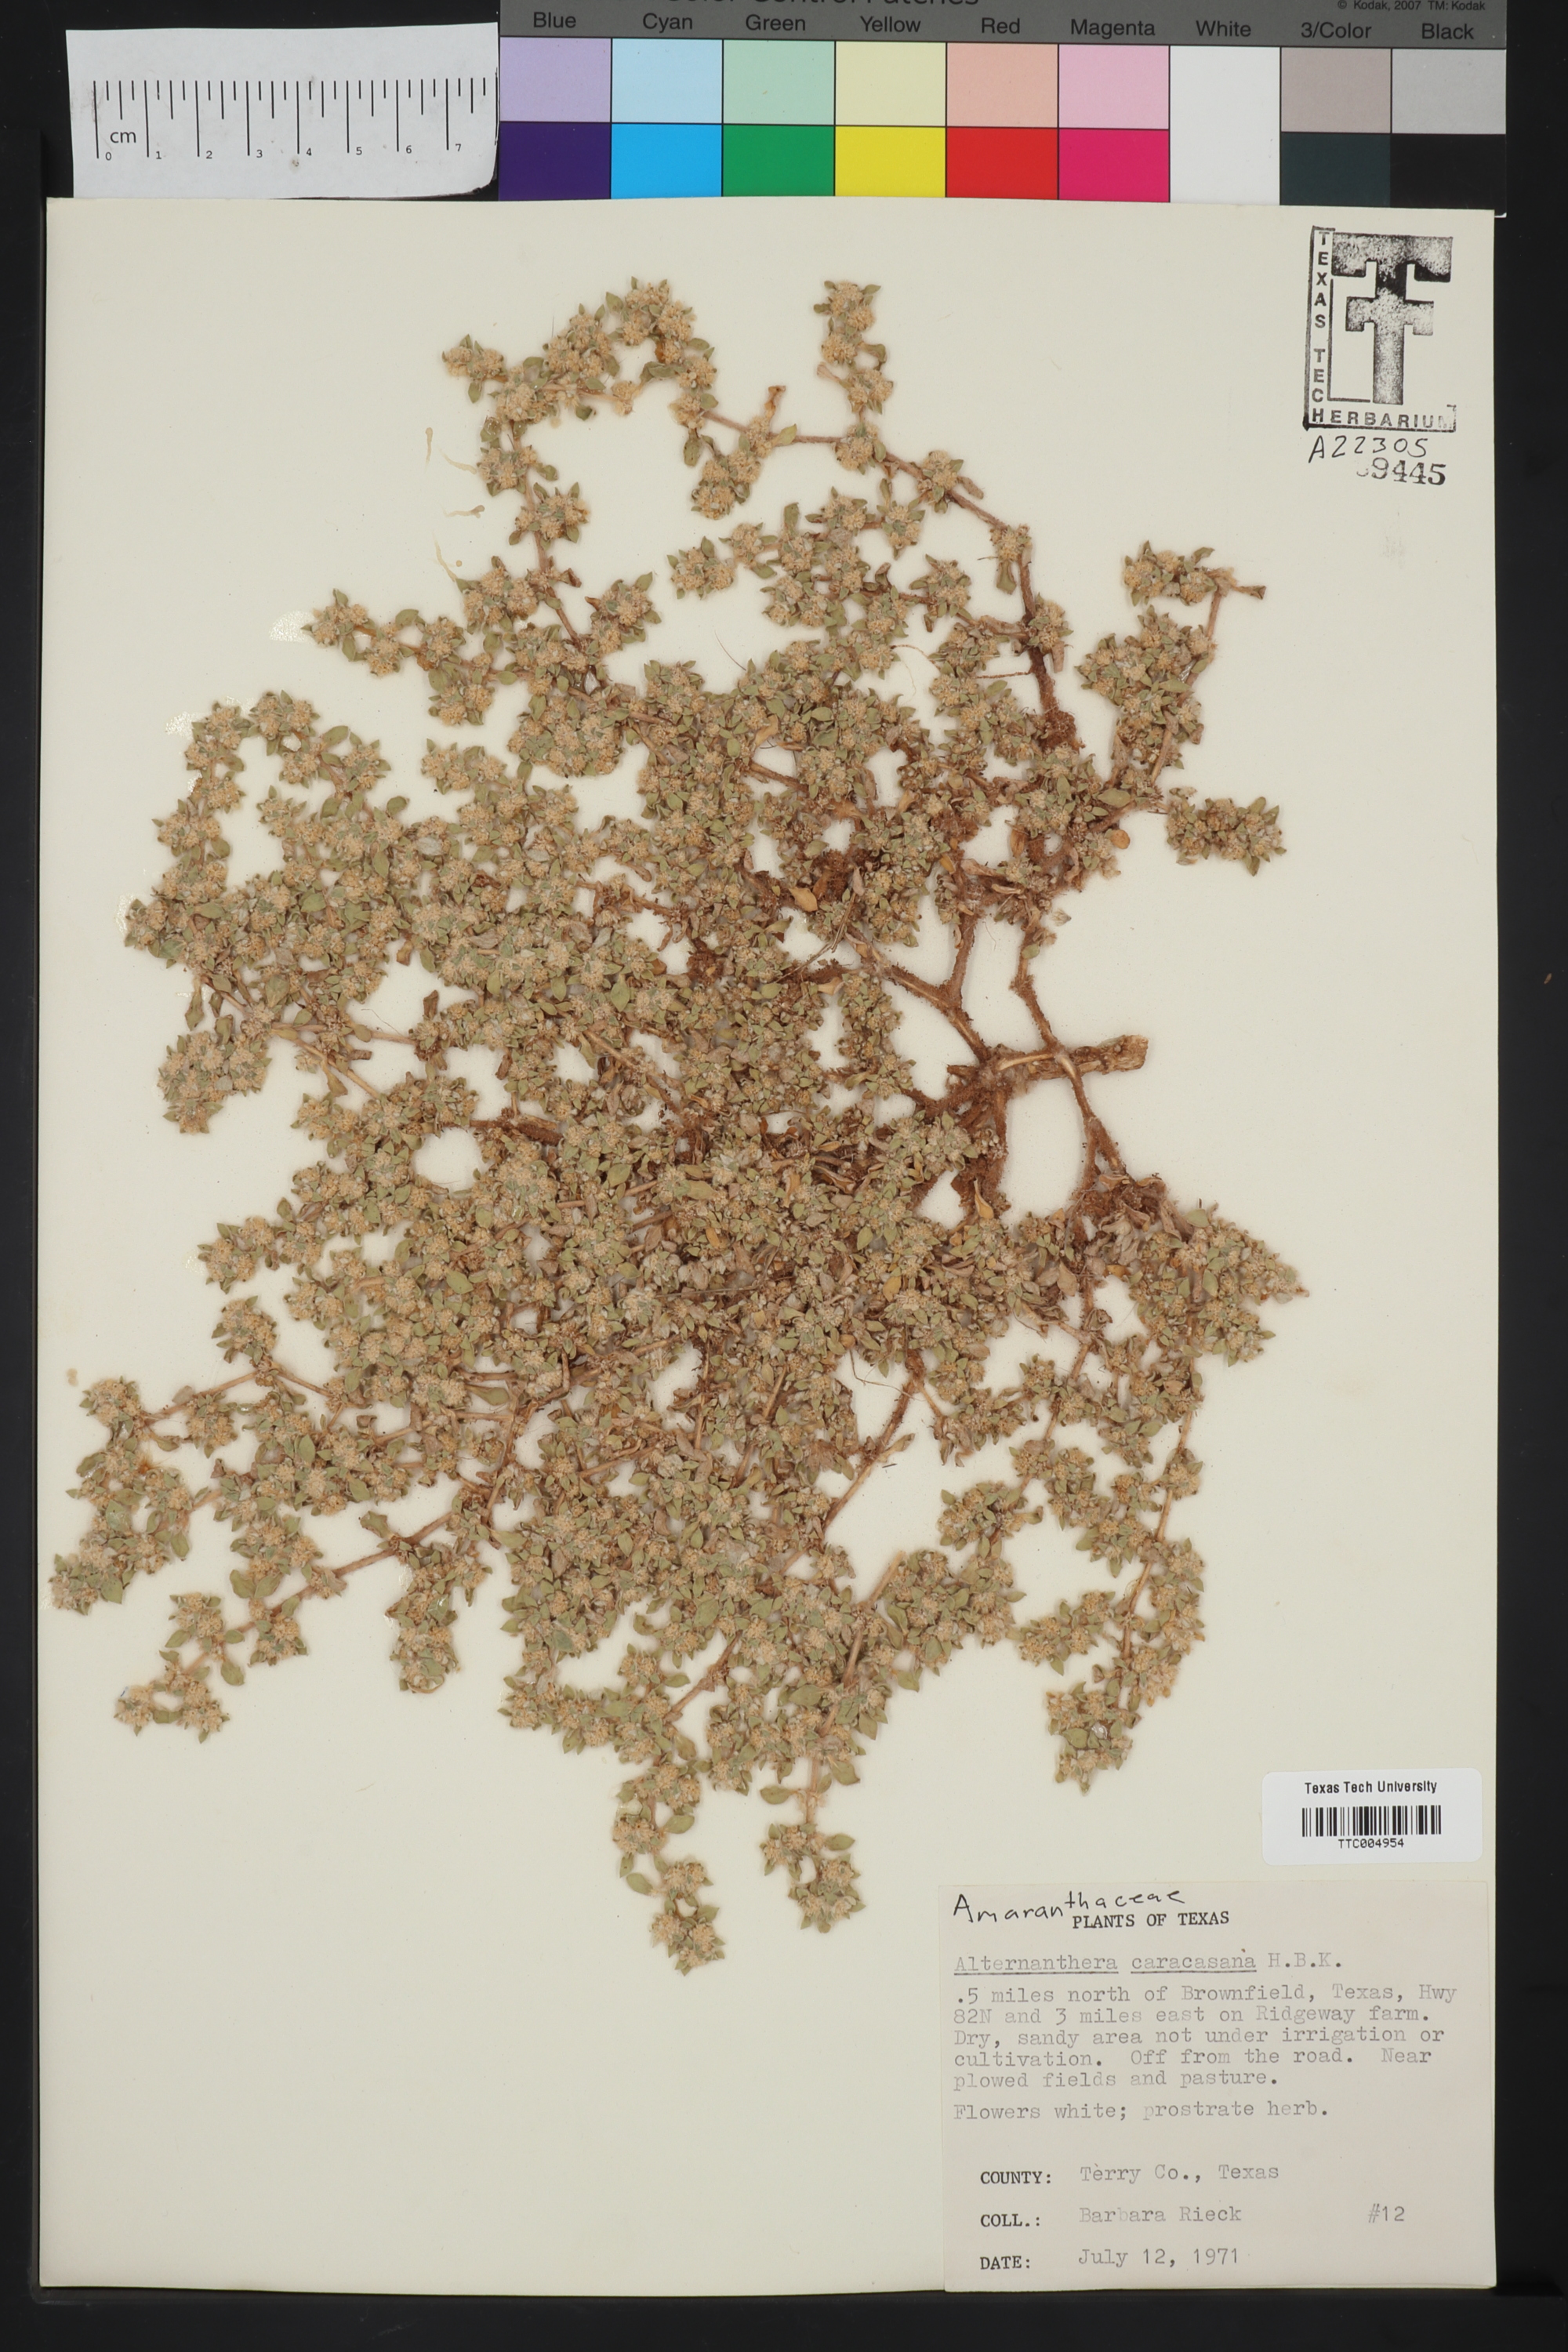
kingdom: Plantae
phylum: Tracheophyta
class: Magnoliopsida
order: Caryophyllales
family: Amaranthaceae
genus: Alternanthera
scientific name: Alternanthera caracasana
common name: Washerwoman
